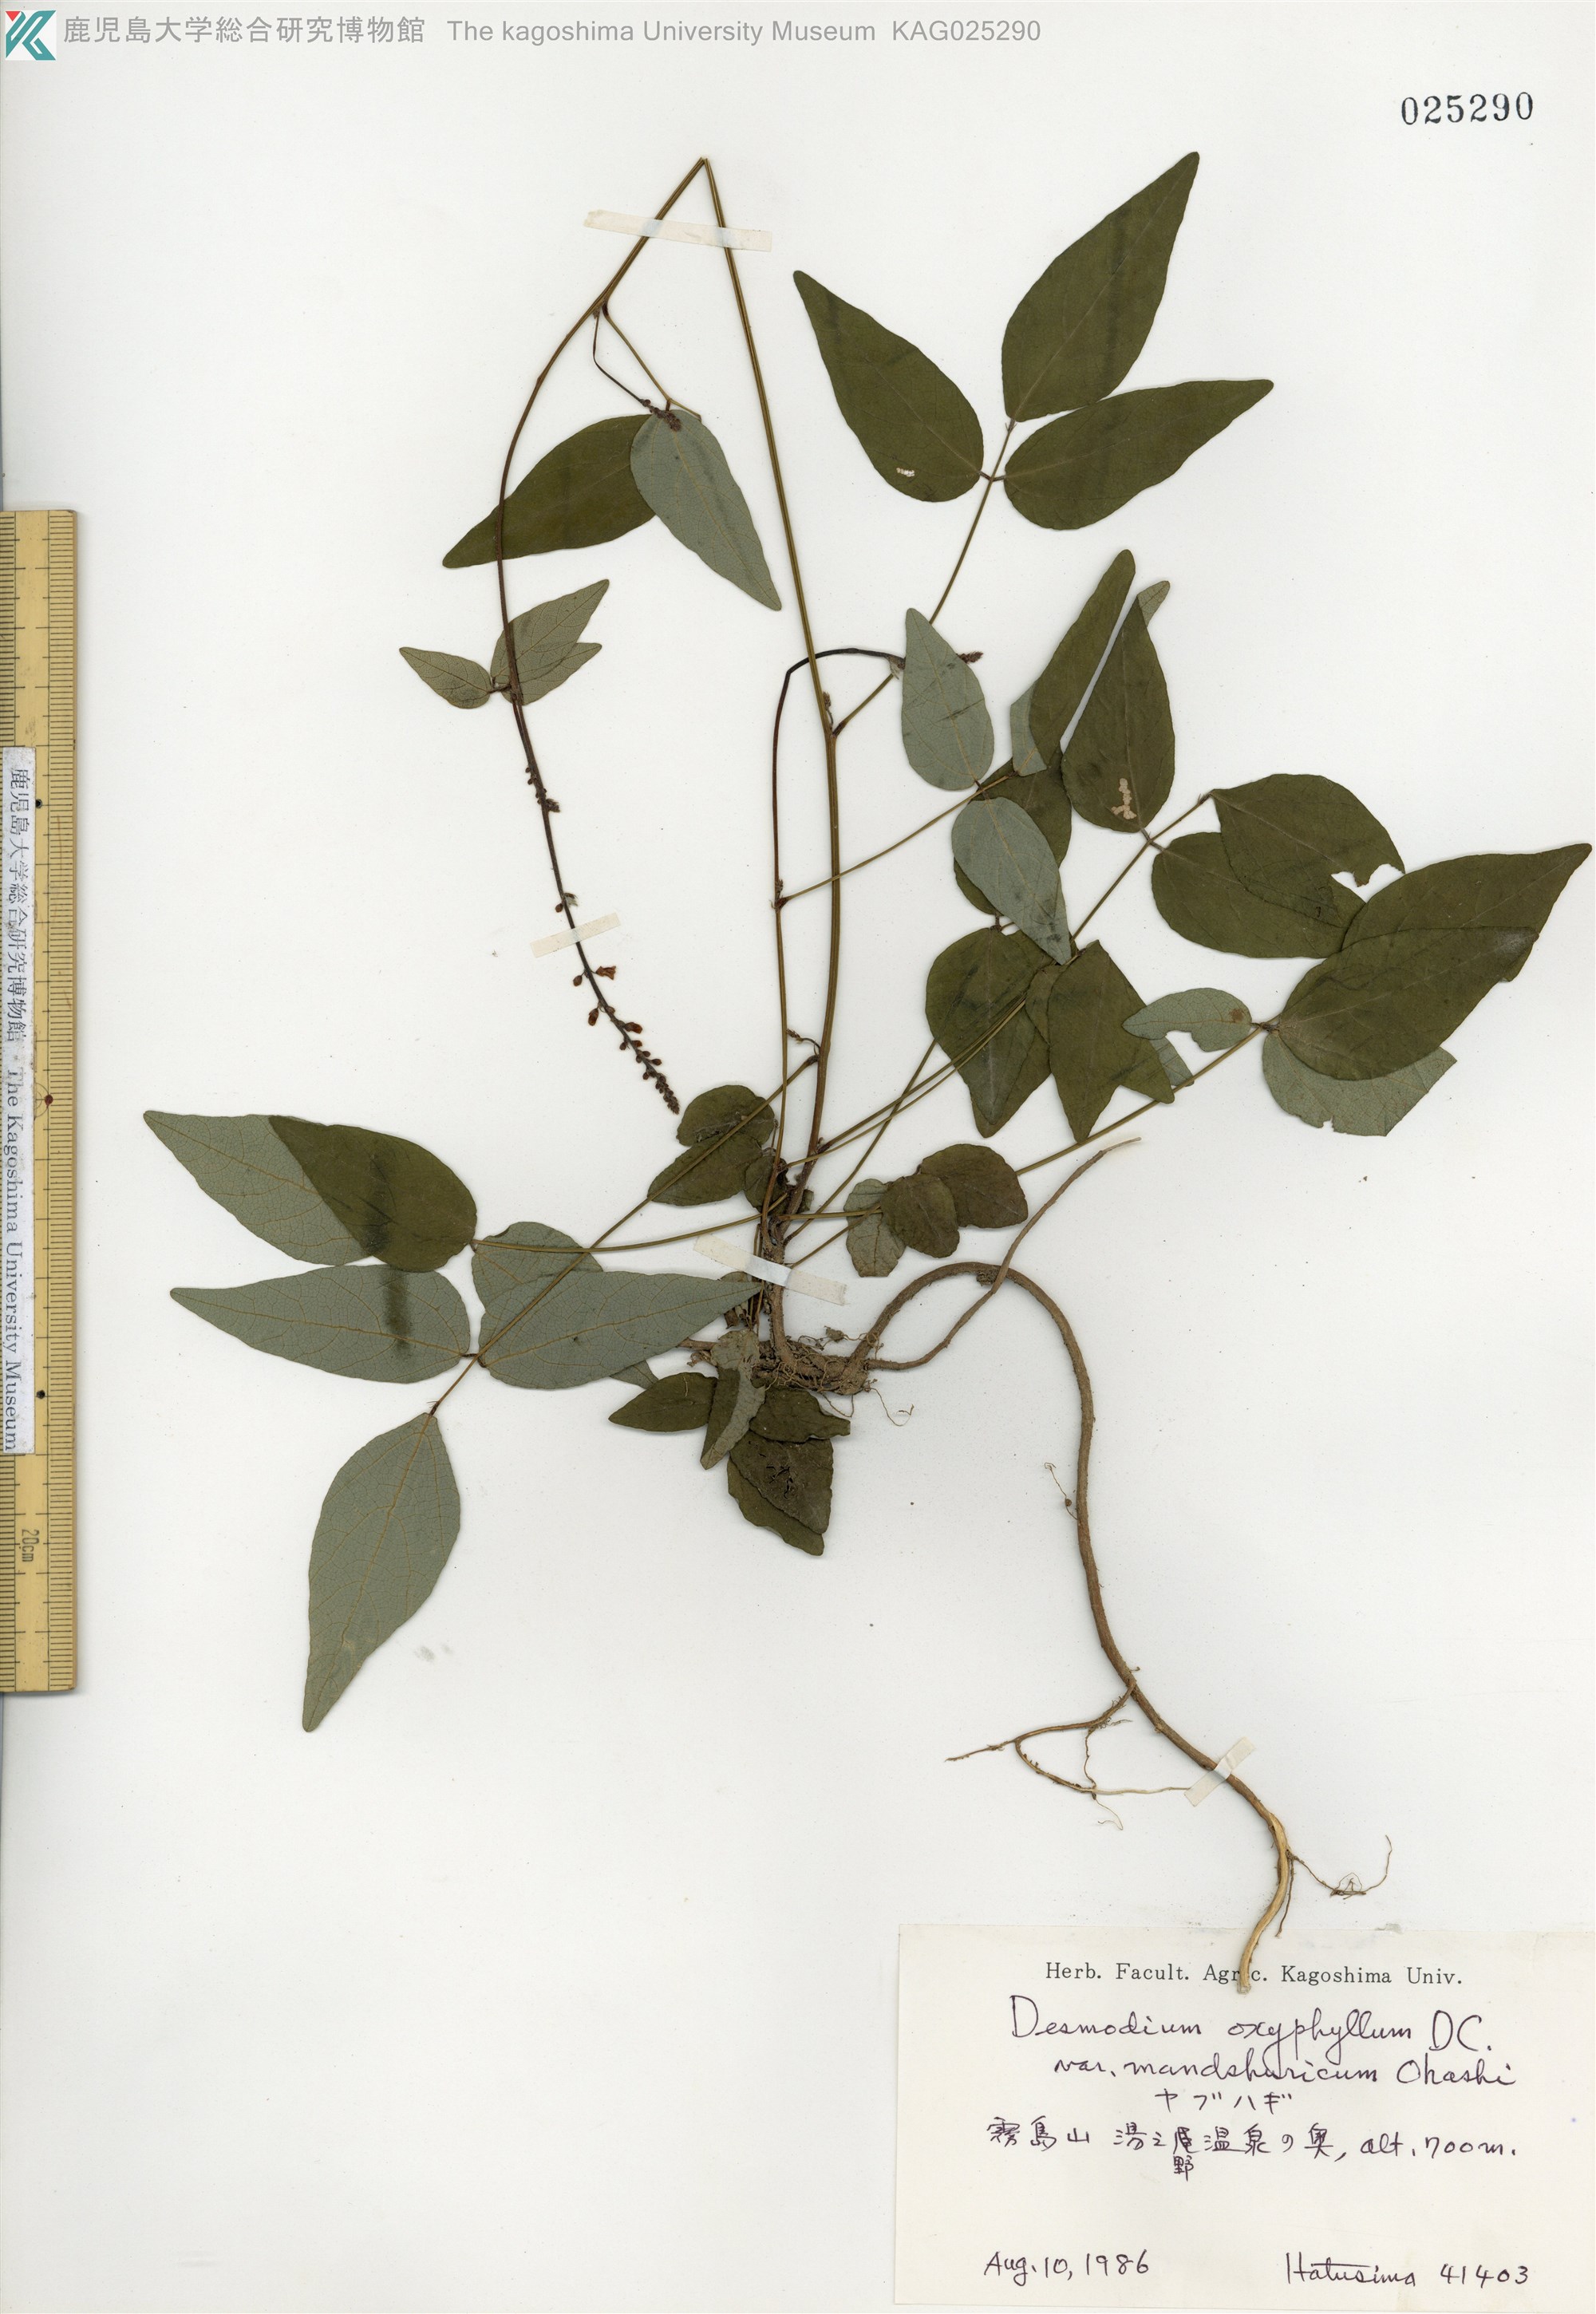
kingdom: Plantae
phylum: Tracheophyta
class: Magnoliopsida
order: Fabales
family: Fabaceae
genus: Hylodesmum
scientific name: Hylodesmum podocarpum
